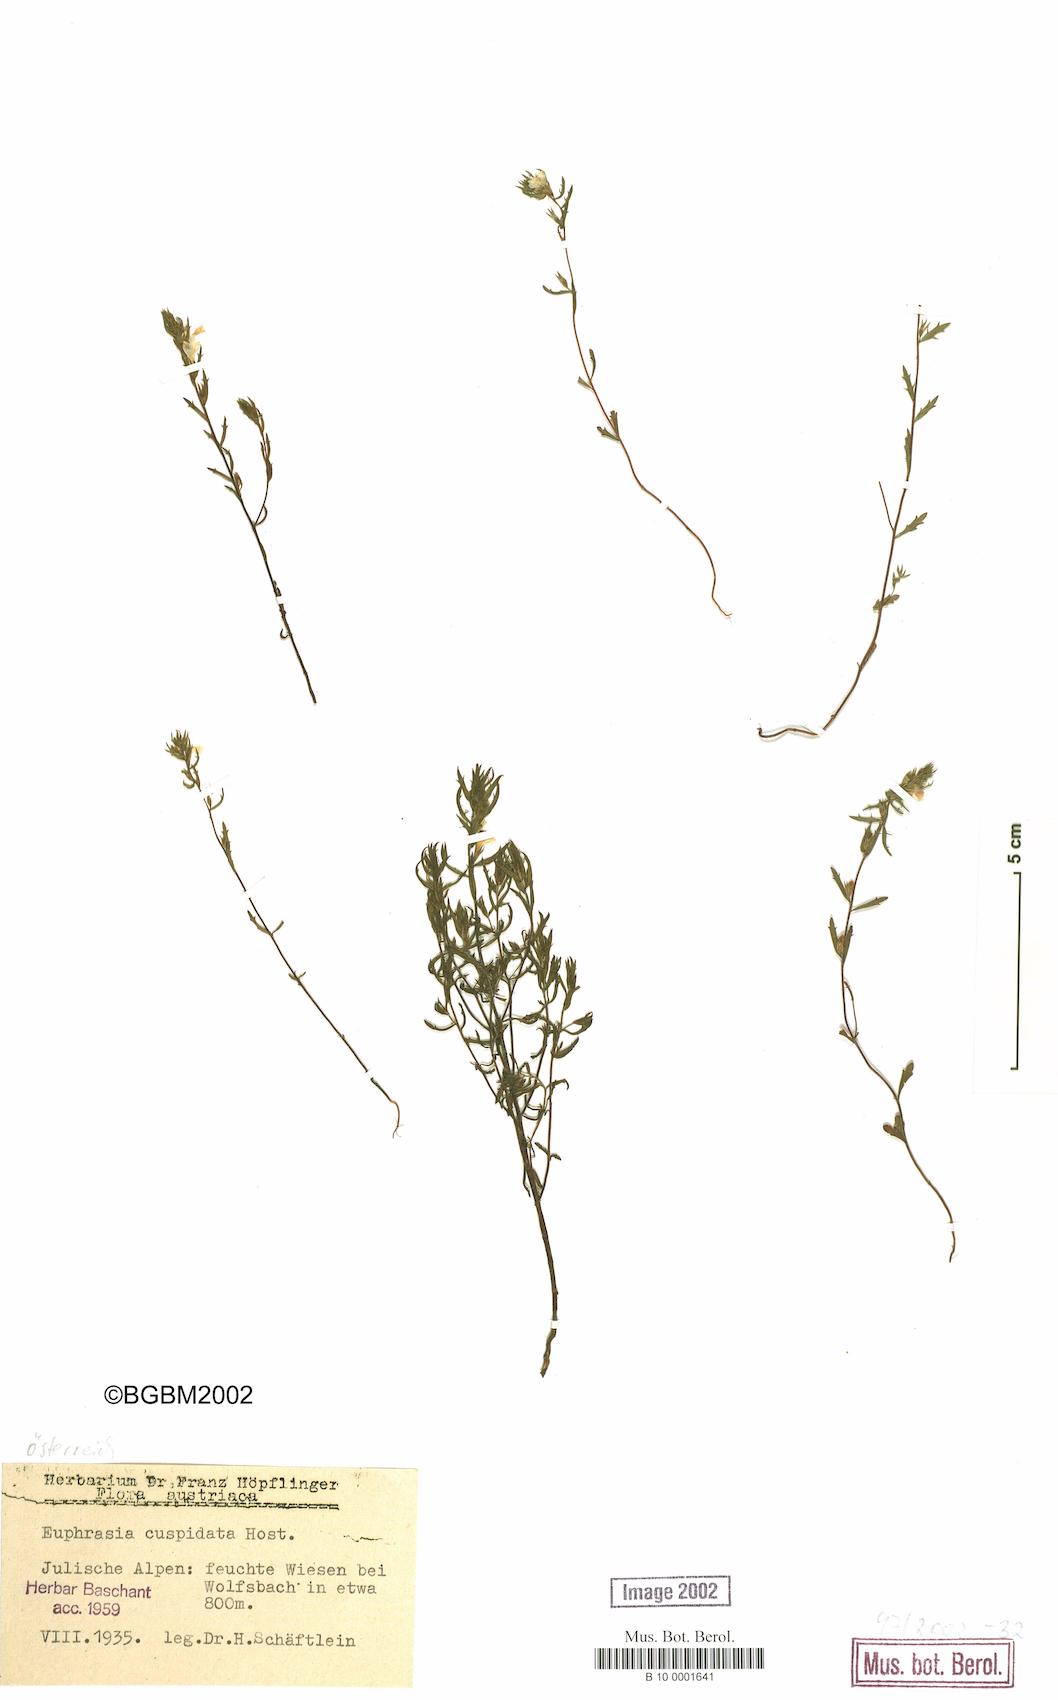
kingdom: Plantae
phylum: Tracheophyta
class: Magnoliopsida
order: Lamiales
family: Orobanchaceae
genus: Euphrasia
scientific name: Euphrasia cuspidata
